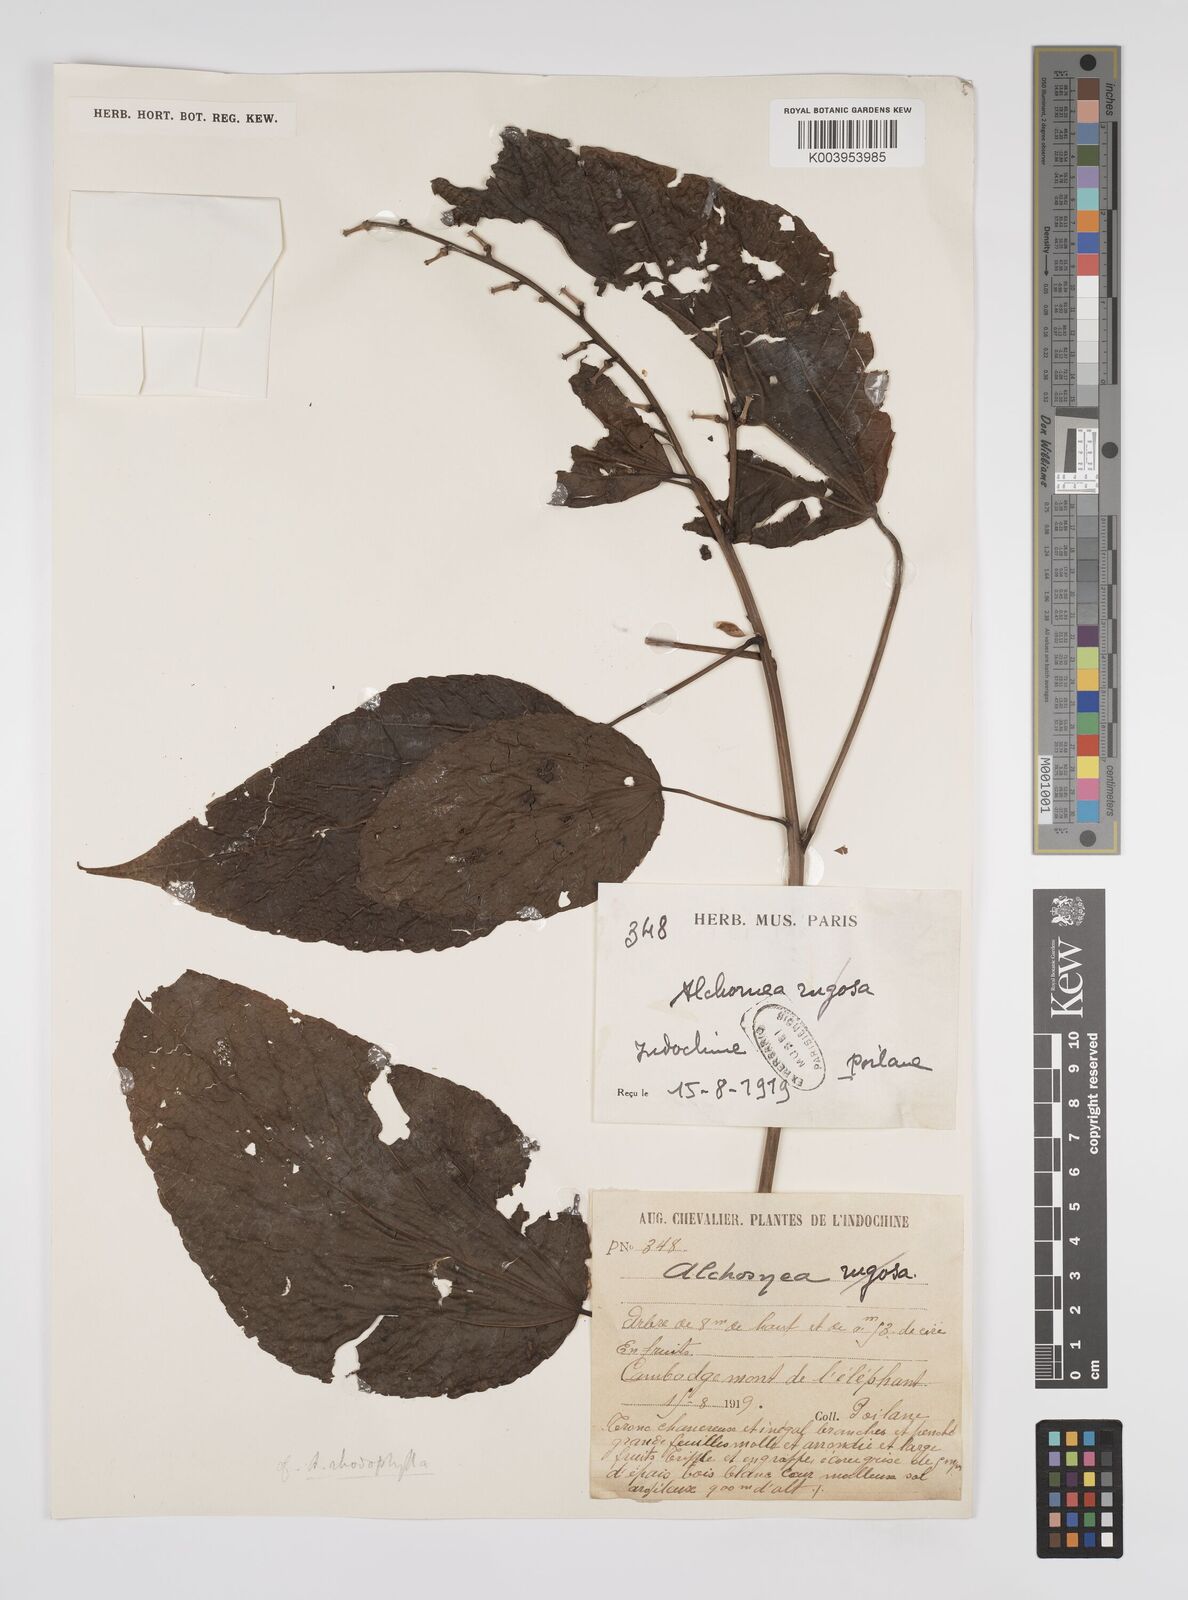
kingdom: Plantae
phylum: Tracheophyta
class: Magnoliopsida
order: Malpighiales
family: Euphorbiaceae
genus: Alchornea
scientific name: Alchornea
